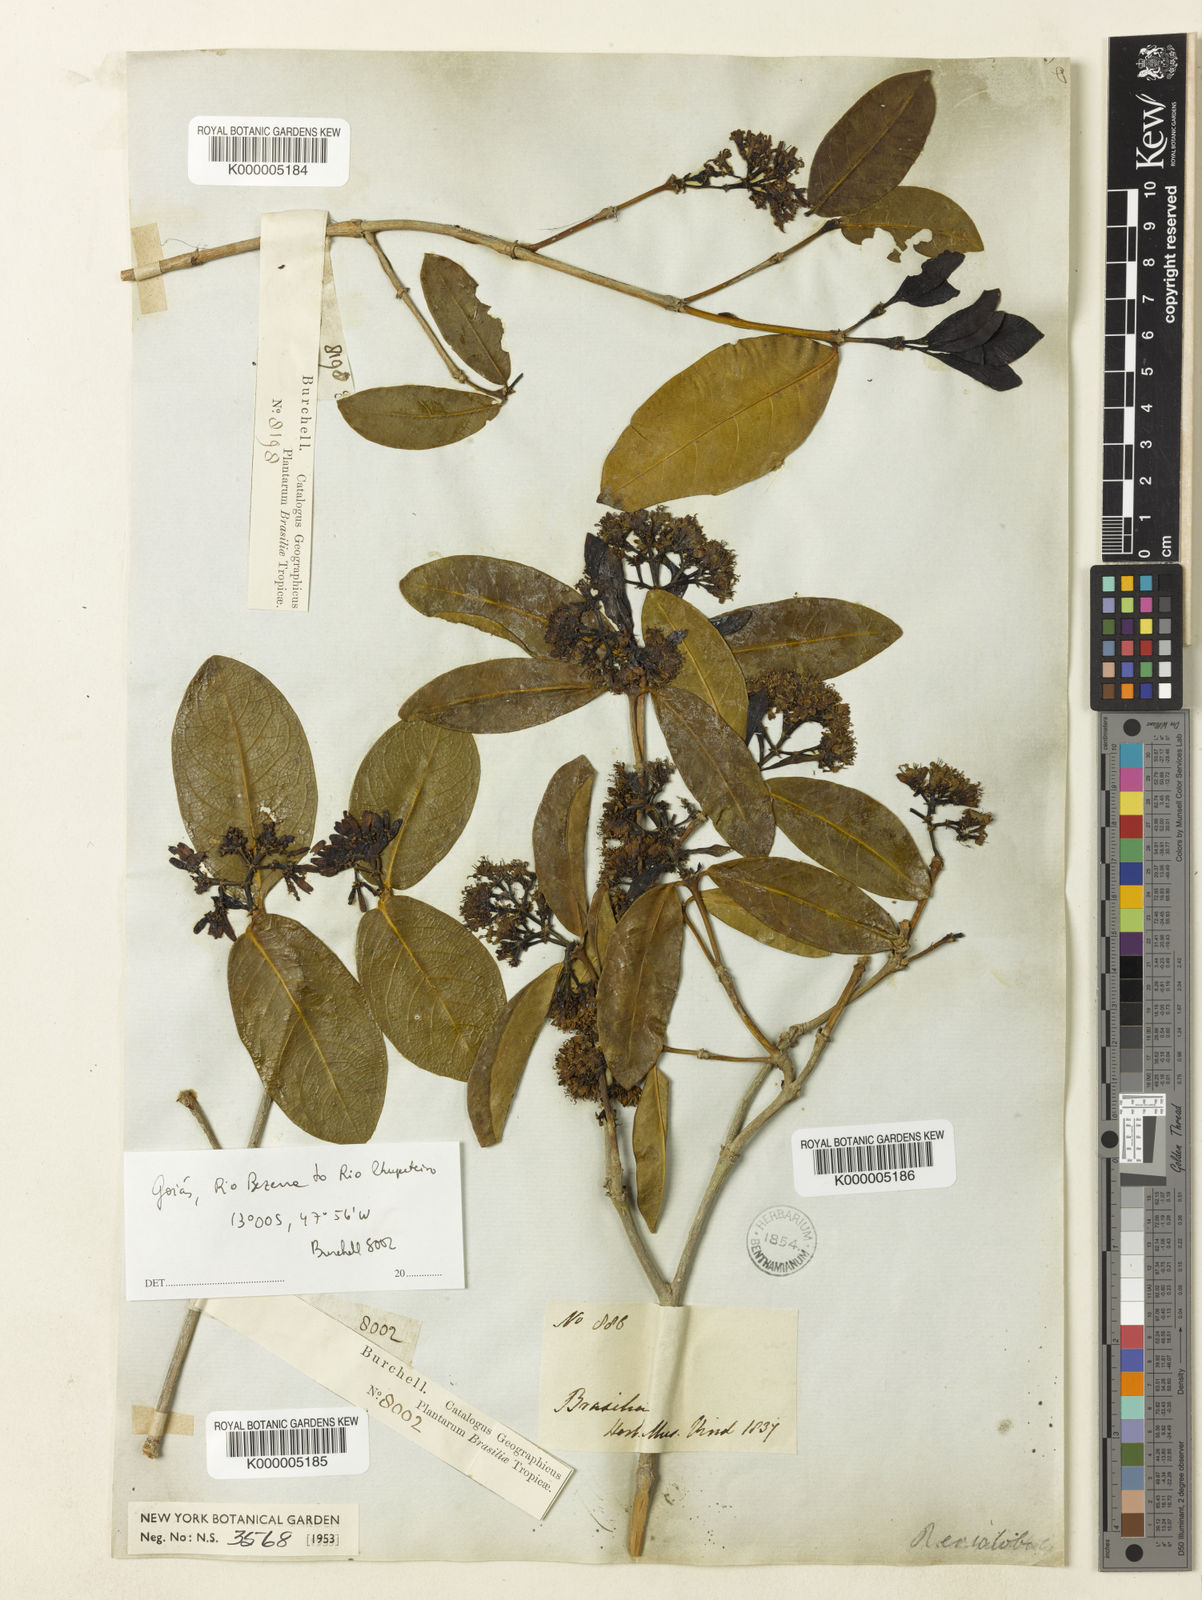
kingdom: Plantae
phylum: Tracheophyta
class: Magnoliopsida
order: Gentianales
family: Rubiaceae
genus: Rudgea
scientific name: Rudgea erioloba
